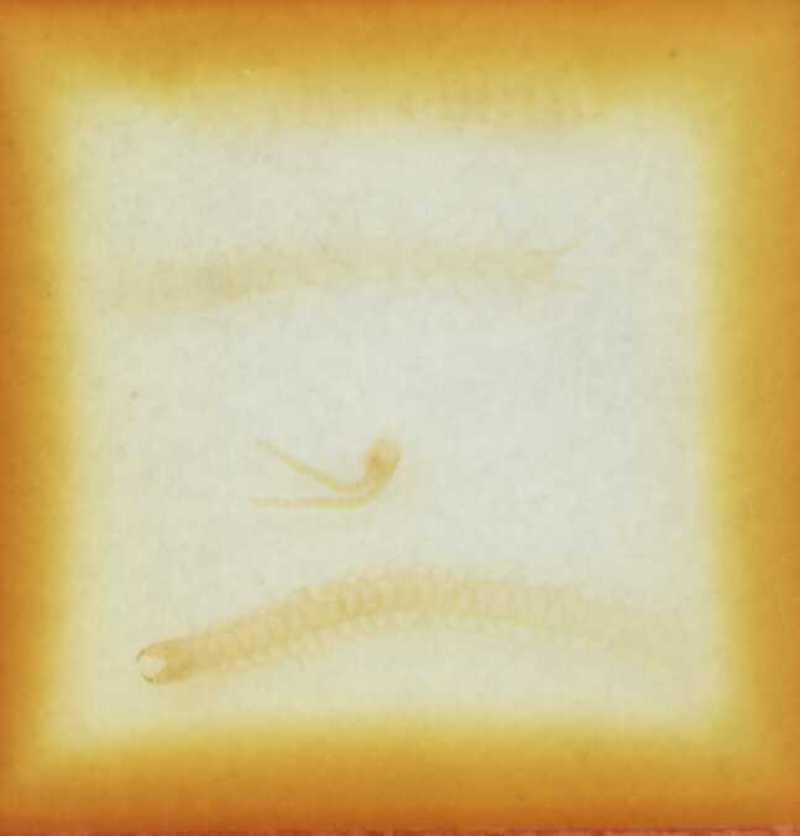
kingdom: Animalia
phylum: Arthropoda
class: Chilopoda
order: Geophilomorpha
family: Geophilidae
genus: Geophilus
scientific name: Geophilus pyrenaicus
